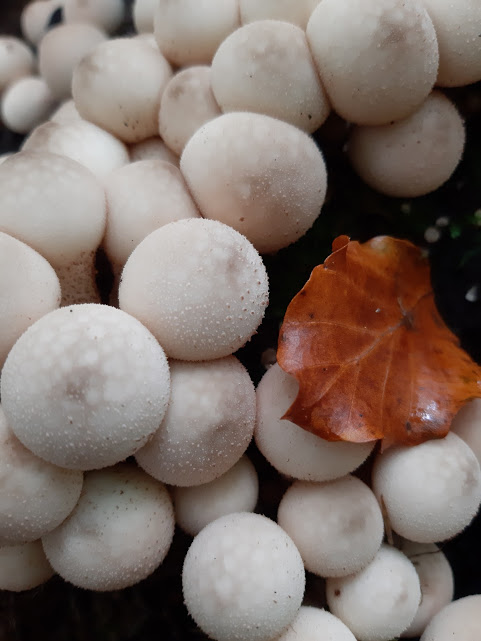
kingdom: Fungi
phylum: Basidiomycota
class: Agaricomycetes
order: Agaricales
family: Lycoperdaceae
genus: Apioperdon
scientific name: Apioperdon pyriforme
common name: pære-støvbold
